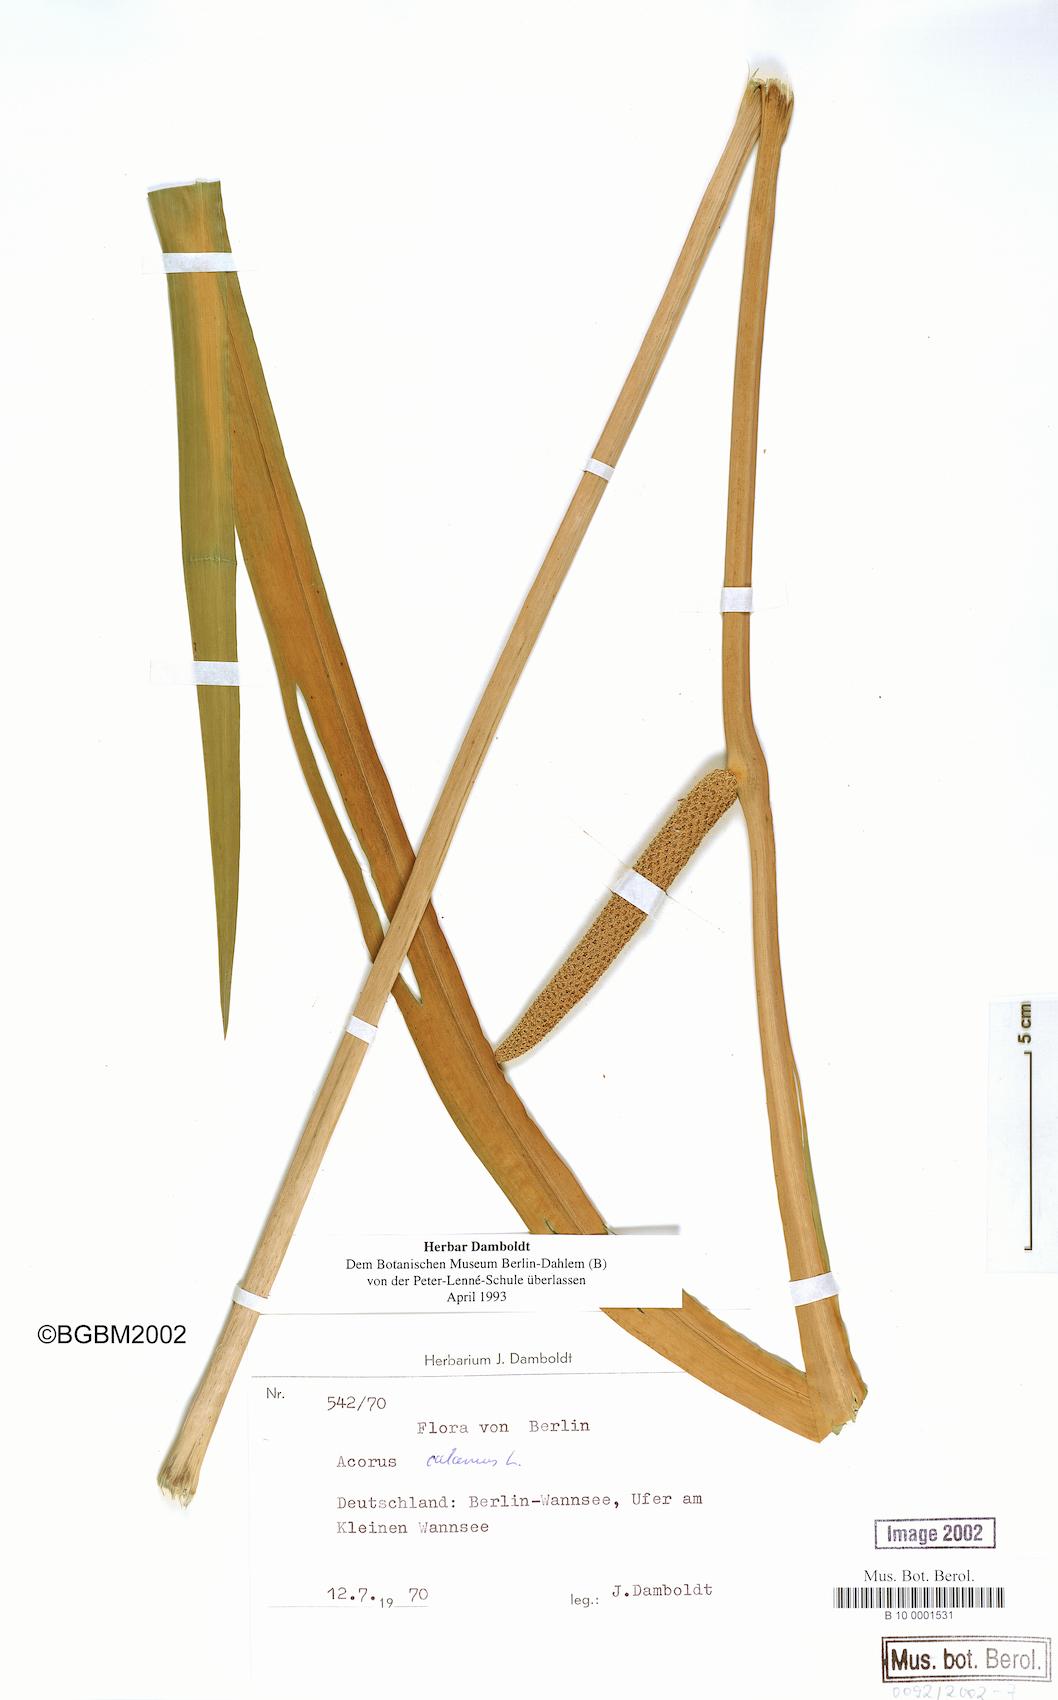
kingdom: Plantae
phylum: Tracheophyta
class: Liliopsida
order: Acorales
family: Acoraceae
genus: Acorus
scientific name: Acorus calamus
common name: Sweet-flag
